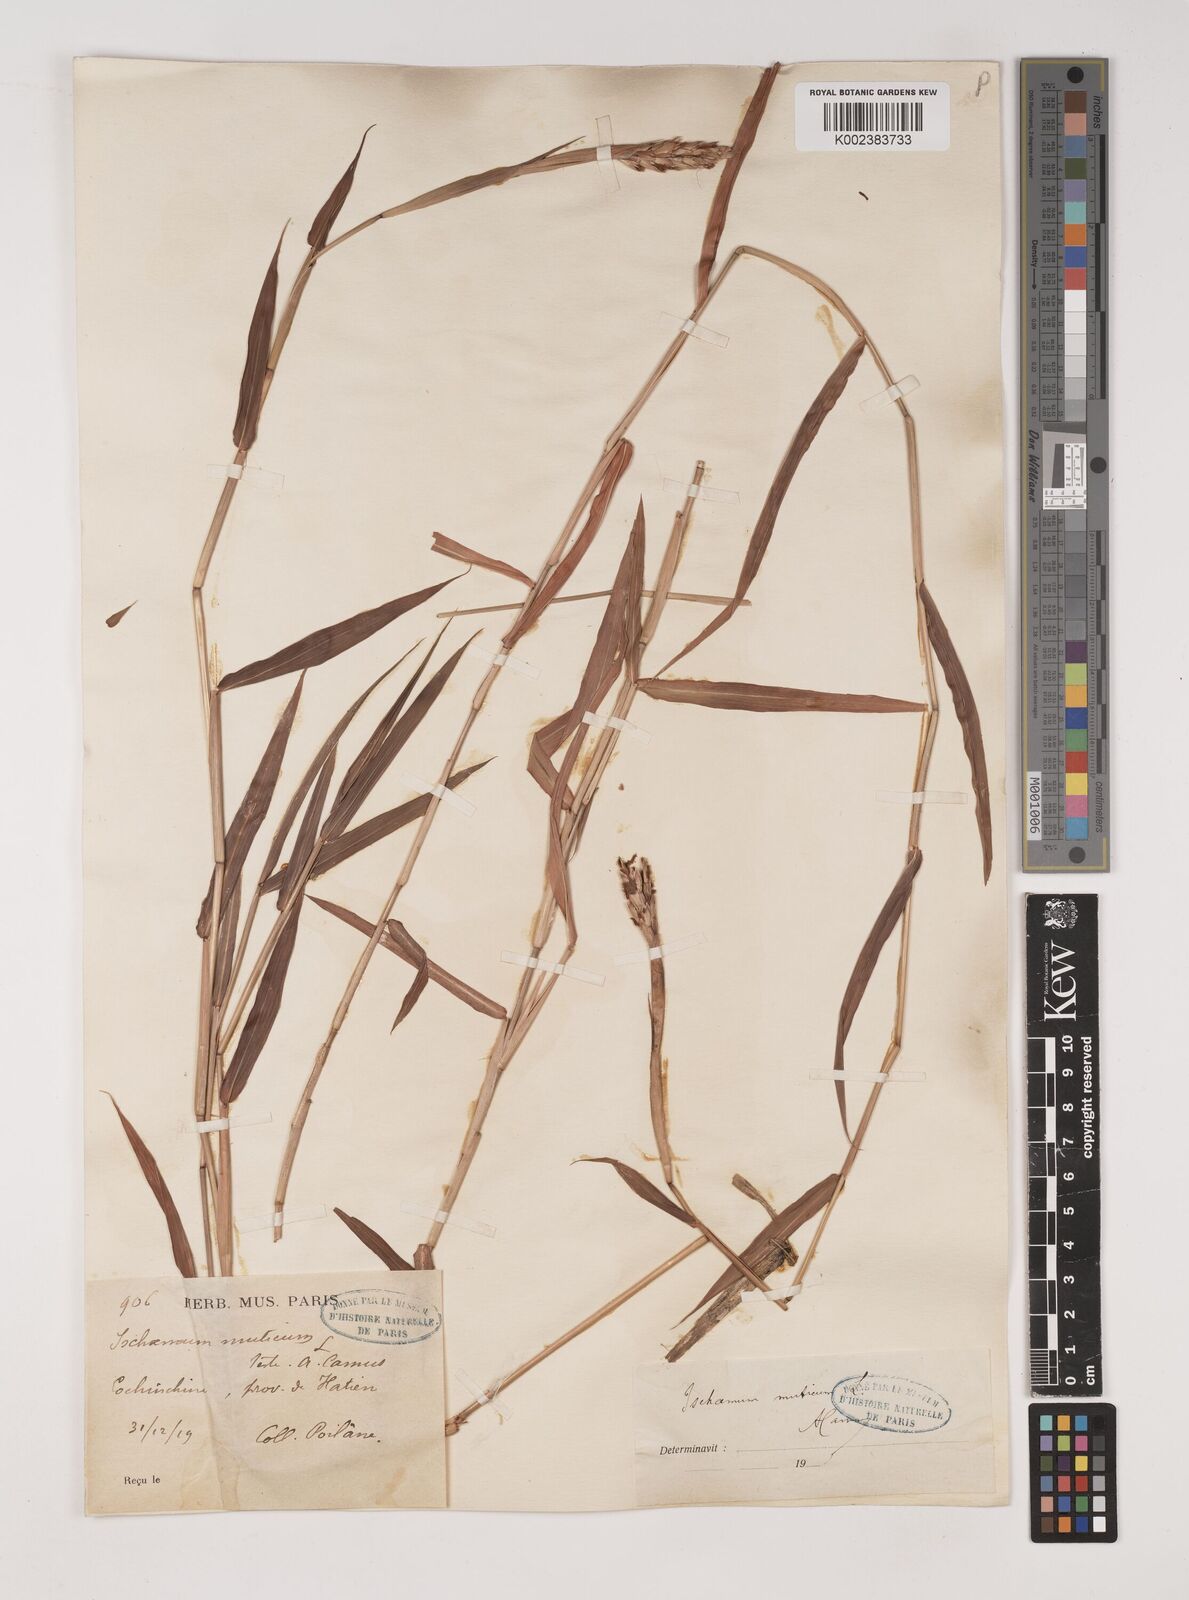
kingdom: Plantae
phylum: Tracheophyta
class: Liliopsida
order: Poales
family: Poaceae
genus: Ischaemum
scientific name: Ischaemum muticum
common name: Drought grass
